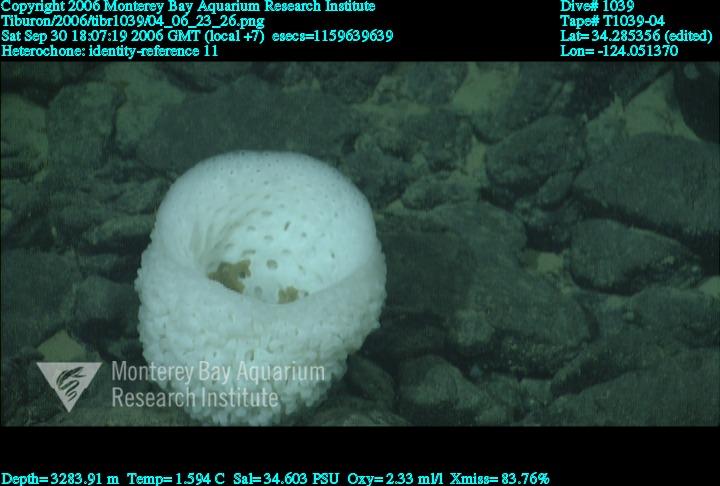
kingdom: Animalia
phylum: Porifera
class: Hexactinellida
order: Sceptrulophora
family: Aphrocallistidae
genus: Heterochone
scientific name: Heterochone
